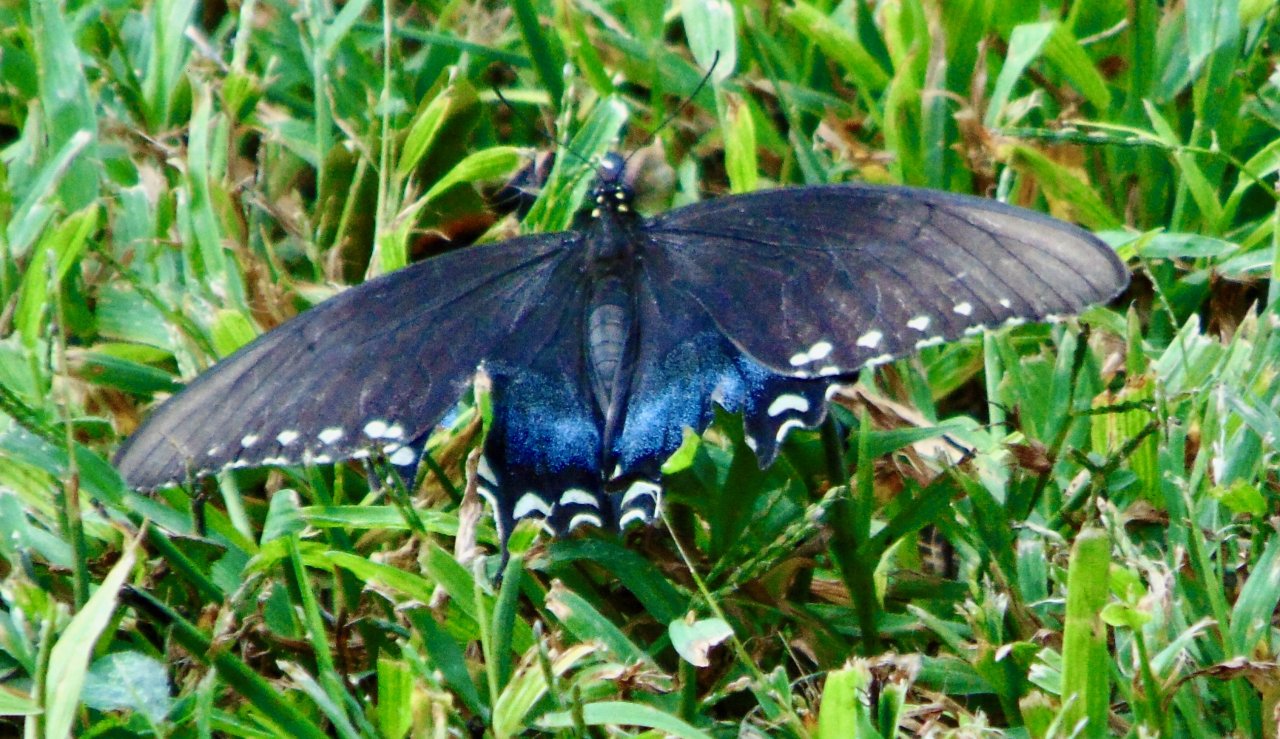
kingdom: Animalia
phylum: Arthropoda
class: Insecta
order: Lepidoptera
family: Papilionidae
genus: Pterourus
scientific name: Pterourus troilus
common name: Spicebush Swallowtail
